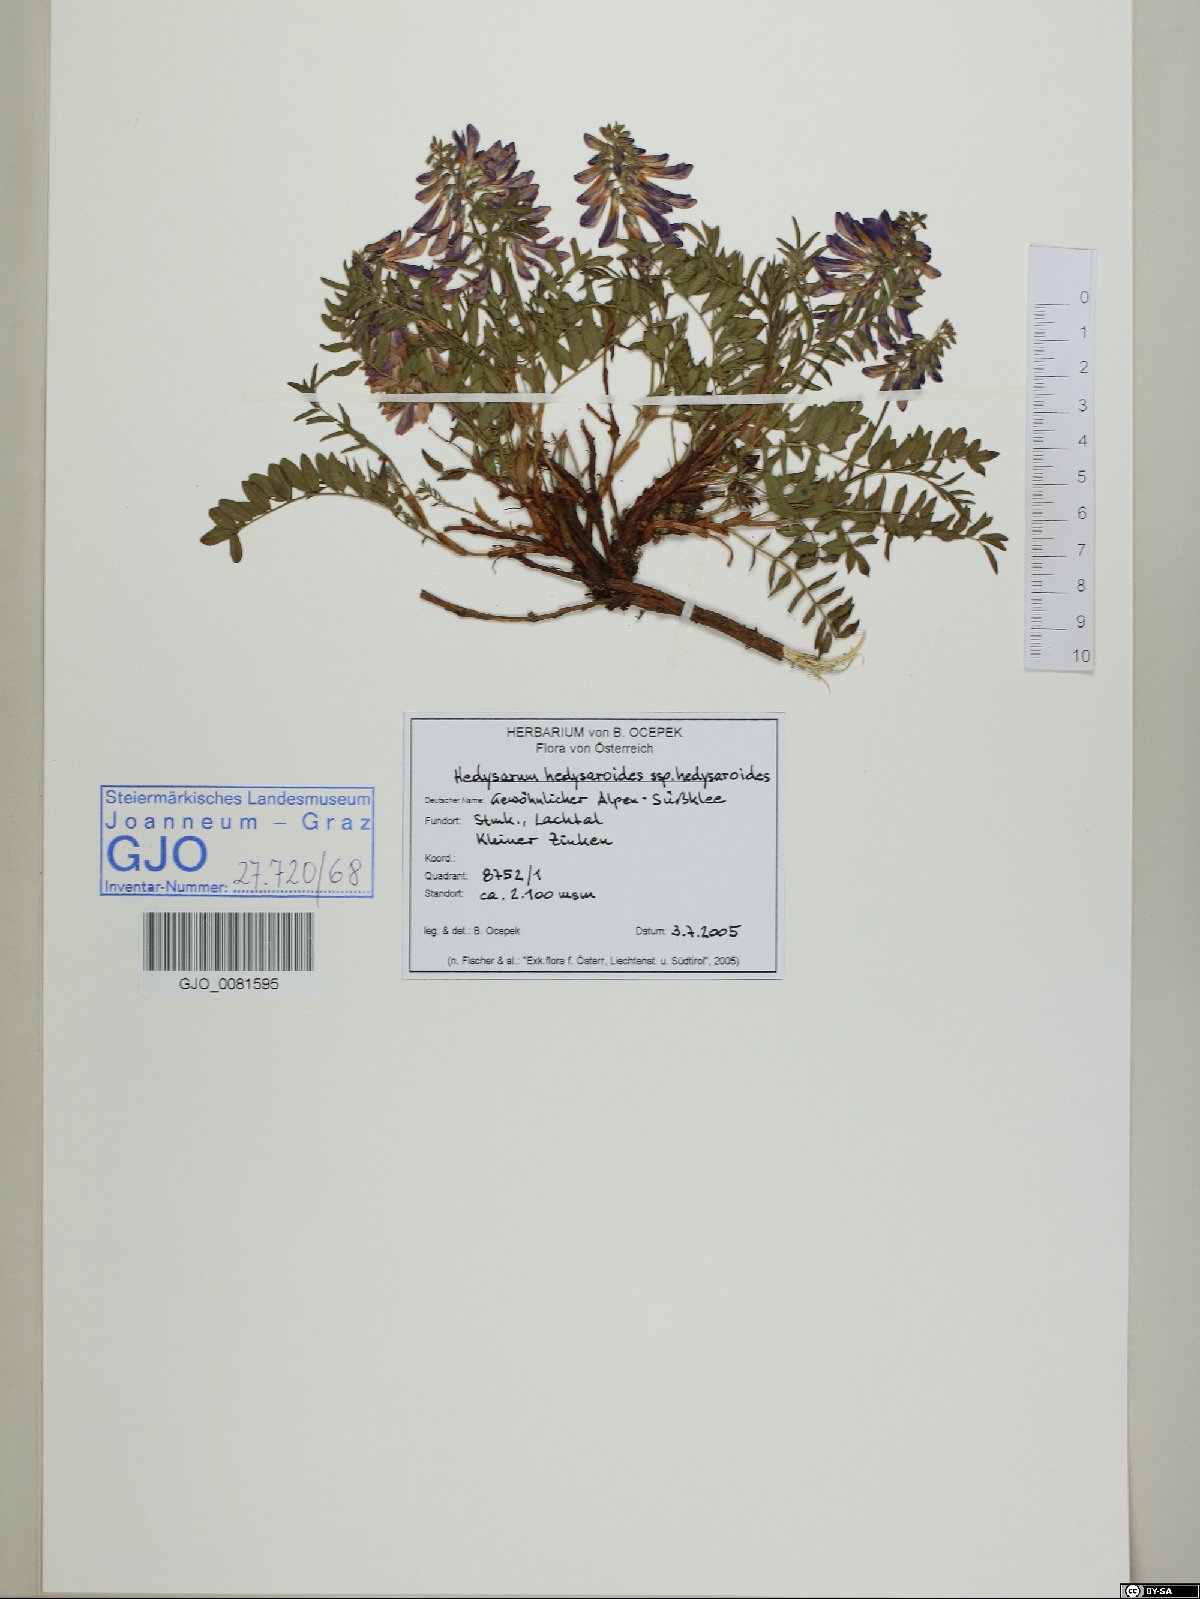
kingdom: Plantae
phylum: Tracheophyta
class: Magnoliopsida
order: Fabales
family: Fabaceae
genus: Hedysarum
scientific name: Hedysarum hedysaroides
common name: Alpine french-honeysuckle
